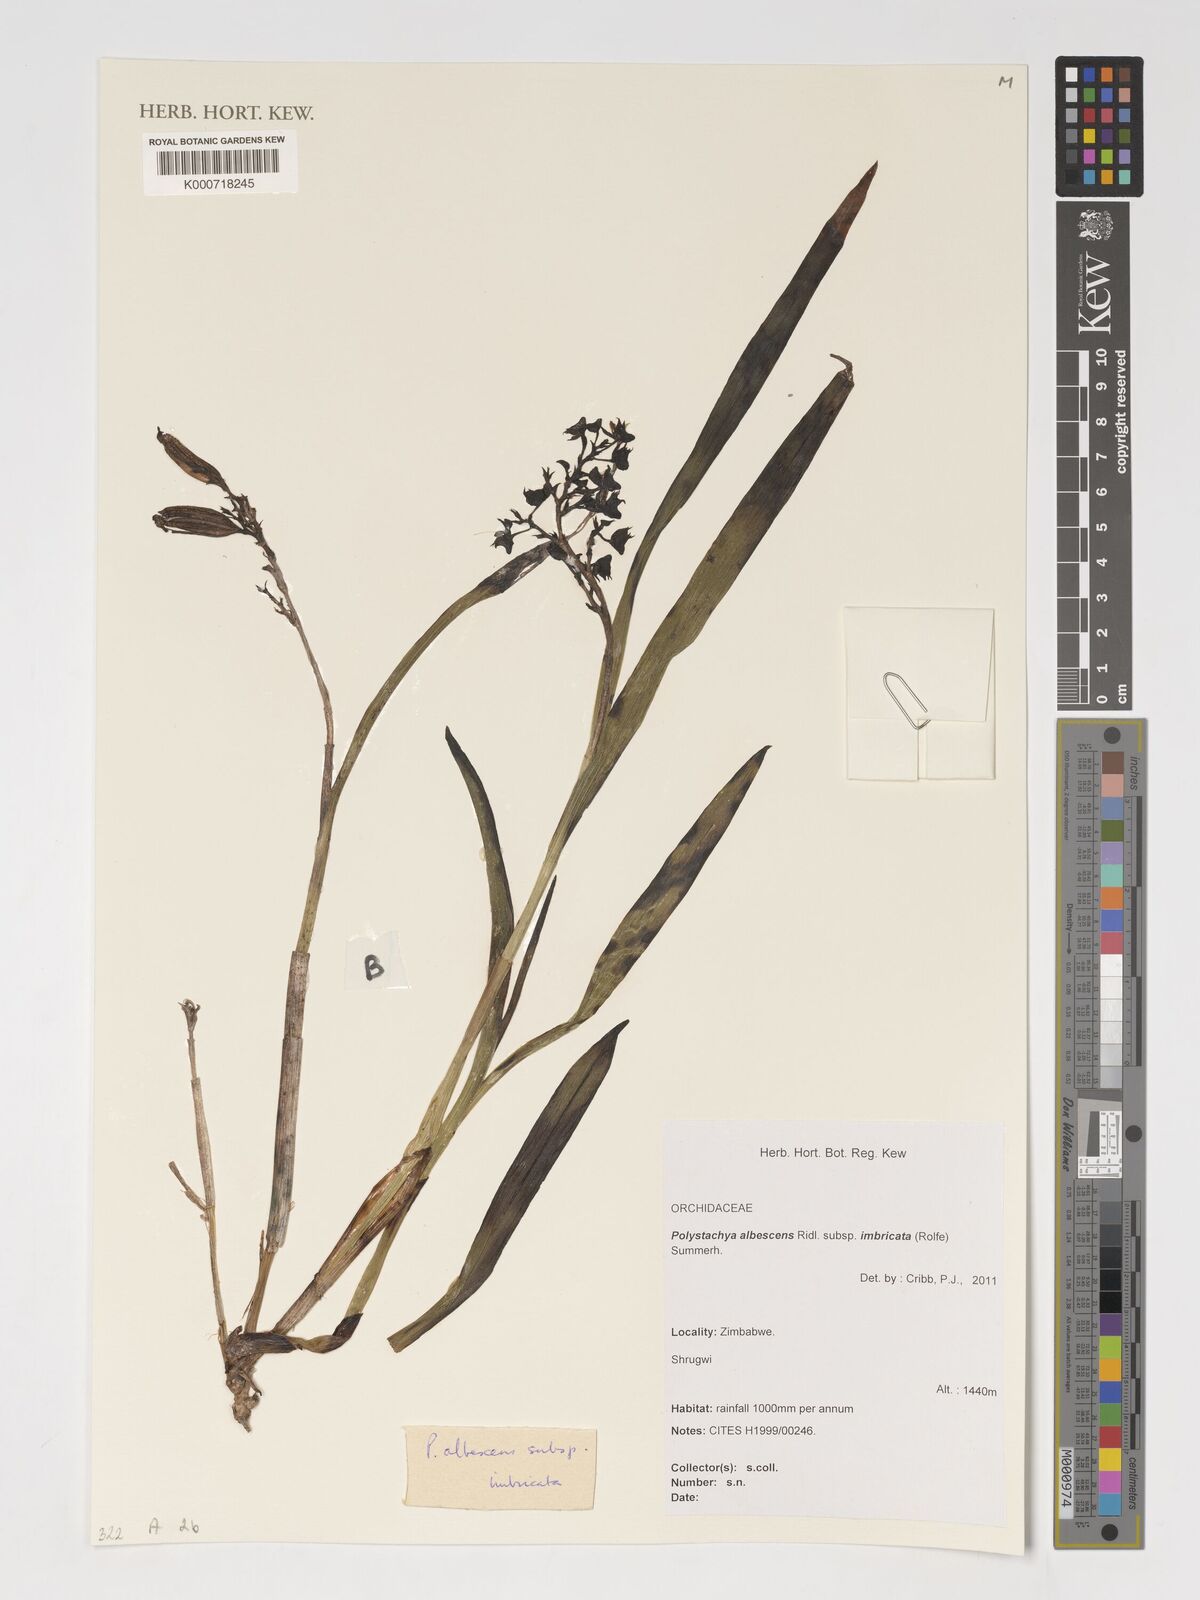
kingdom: Plantae
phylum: Tracheophyta
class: Liliopsida
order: Asparagales
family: Orchidaceae
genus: Polystachya
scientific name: Polystachya albescens
